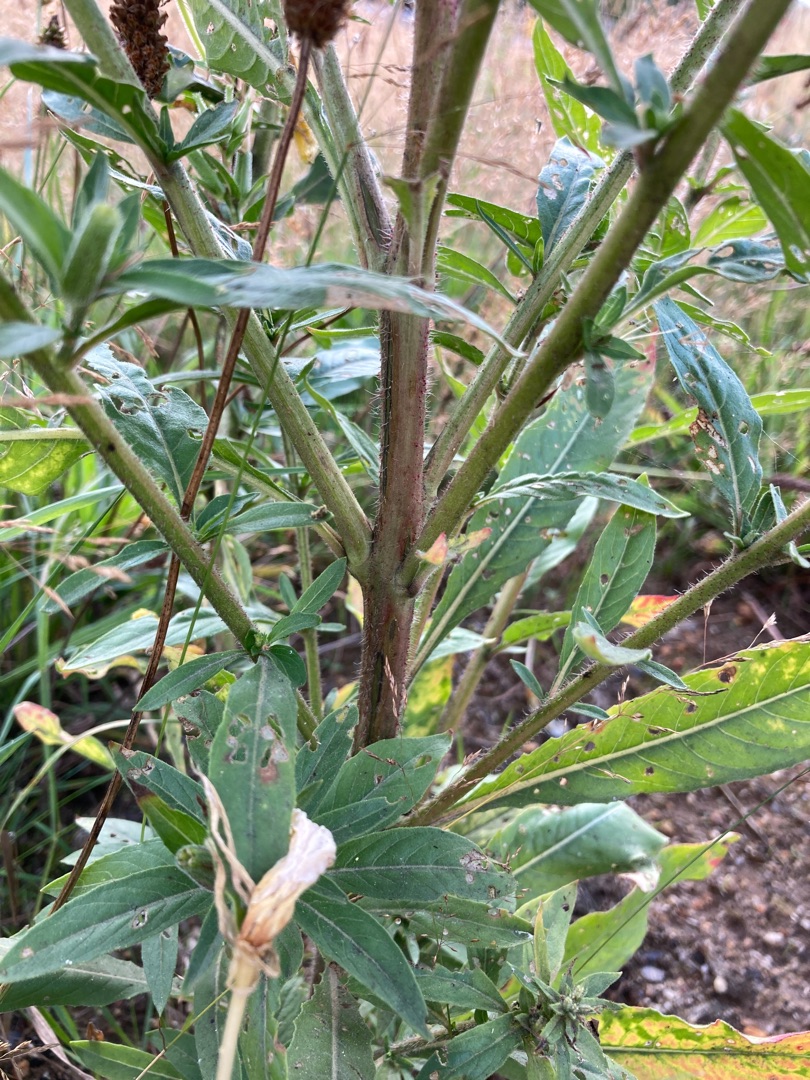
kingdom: Plantae
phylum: Tracheophyta
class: Magnoliopsida
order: Myrtales
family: Onagraceae
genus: Oenothera
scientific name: Oenothera glazioviana
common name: Kæmpe-natlys
